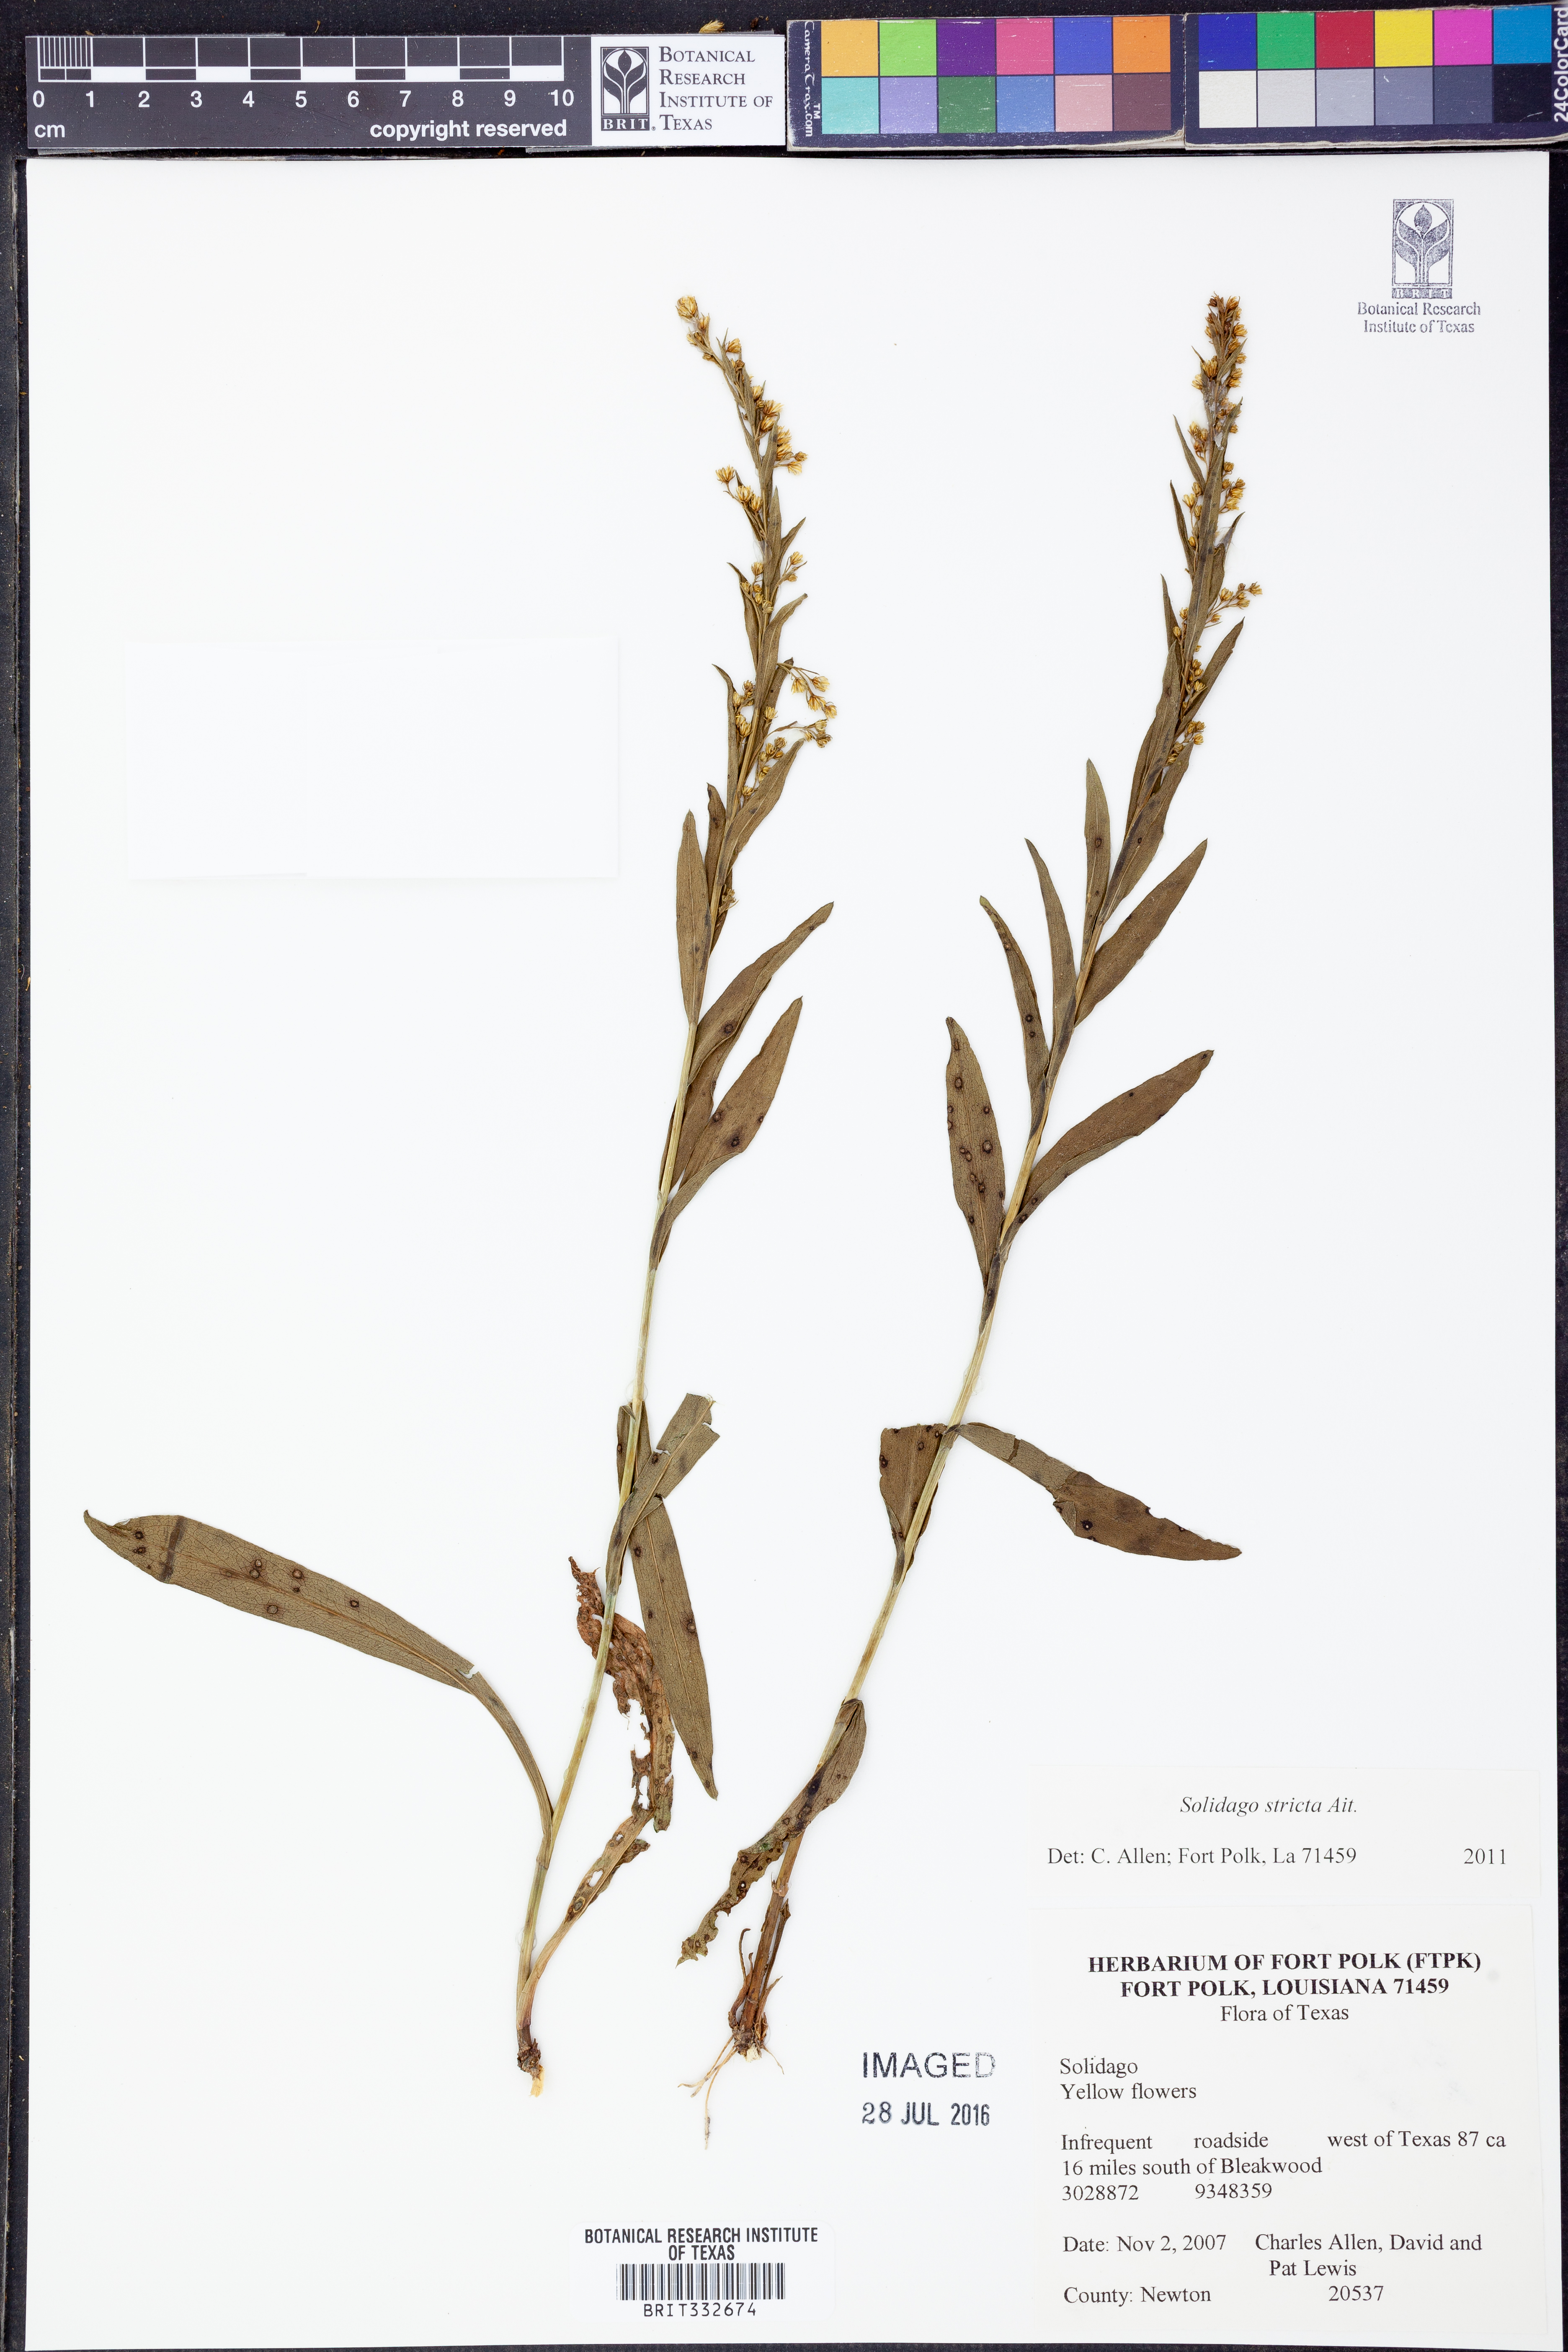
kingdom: Plantae
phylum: Tracheophyta
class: Magnoliopsida
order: Asterales
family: Asteraceae
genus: Solidago
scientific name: Solidago stricta
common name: Pine barren bog goldenrod
